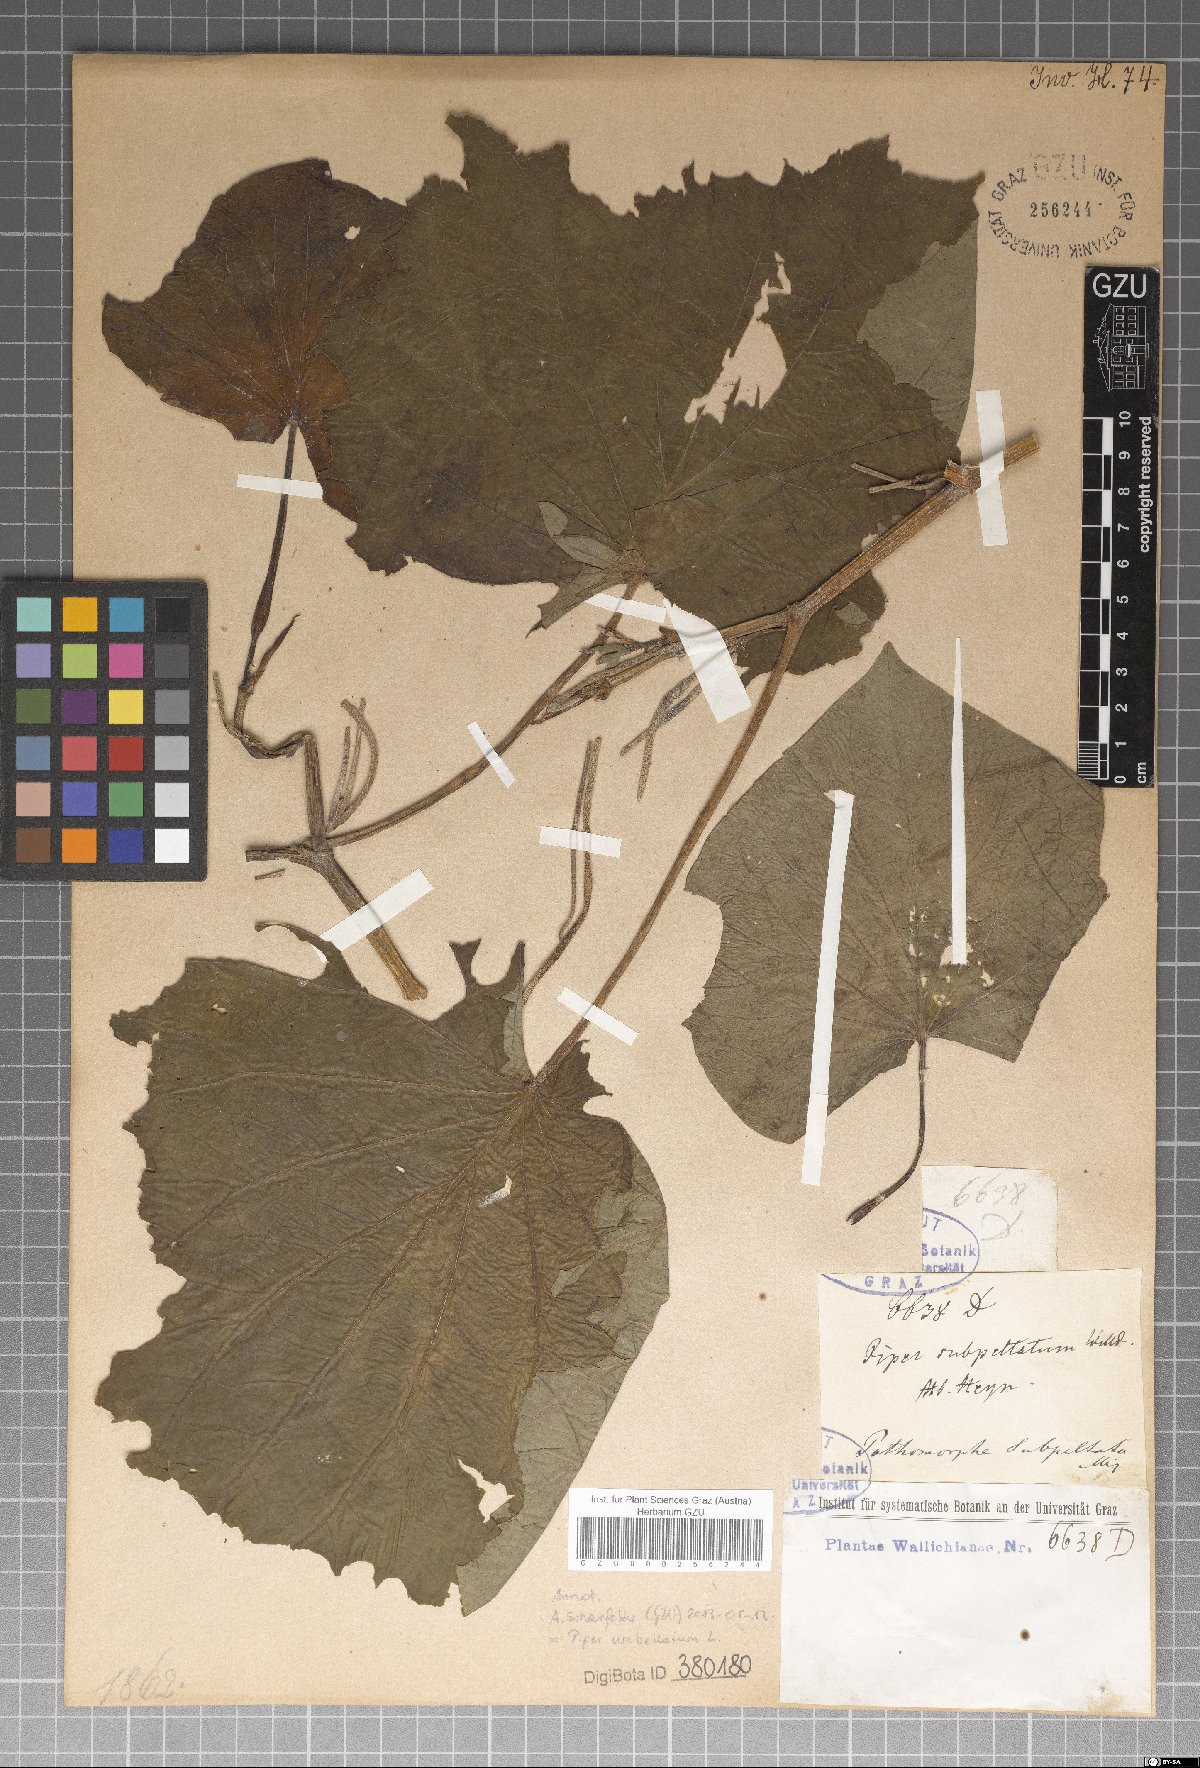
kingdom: Plantae
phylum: Tracheophyta
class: Magnoliopsida
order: Piperales
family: Piperaceae
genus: Piper
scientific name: Piper umbellatum
